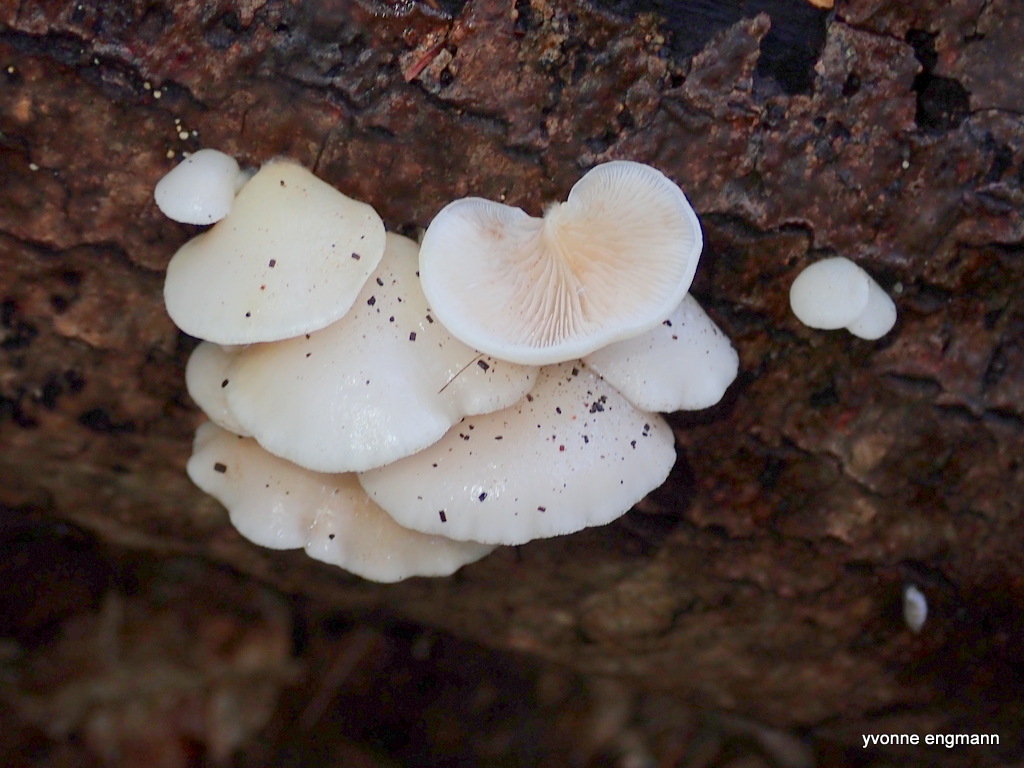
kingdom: Fungi
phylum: Basidiomycota
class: Agaricomycetes
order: Agaricales
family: Crepidotaceae
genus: Crepidotus
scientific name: Crepidotus
